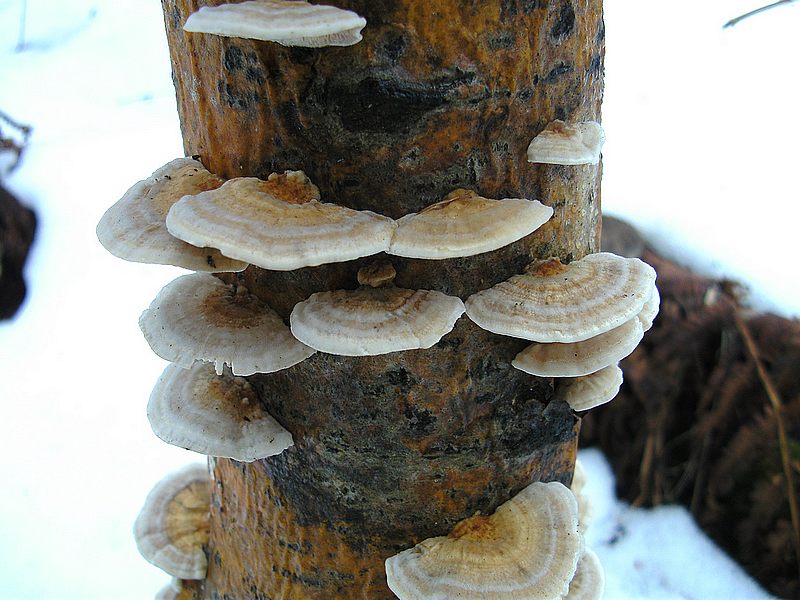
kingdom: Fungi
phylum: Basidiomycota
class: Agaricomycetes
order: Polyporales
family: Polyporaceae
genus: Trametes
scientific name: Trametes ochracea
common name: bæltet læderporesvamp
